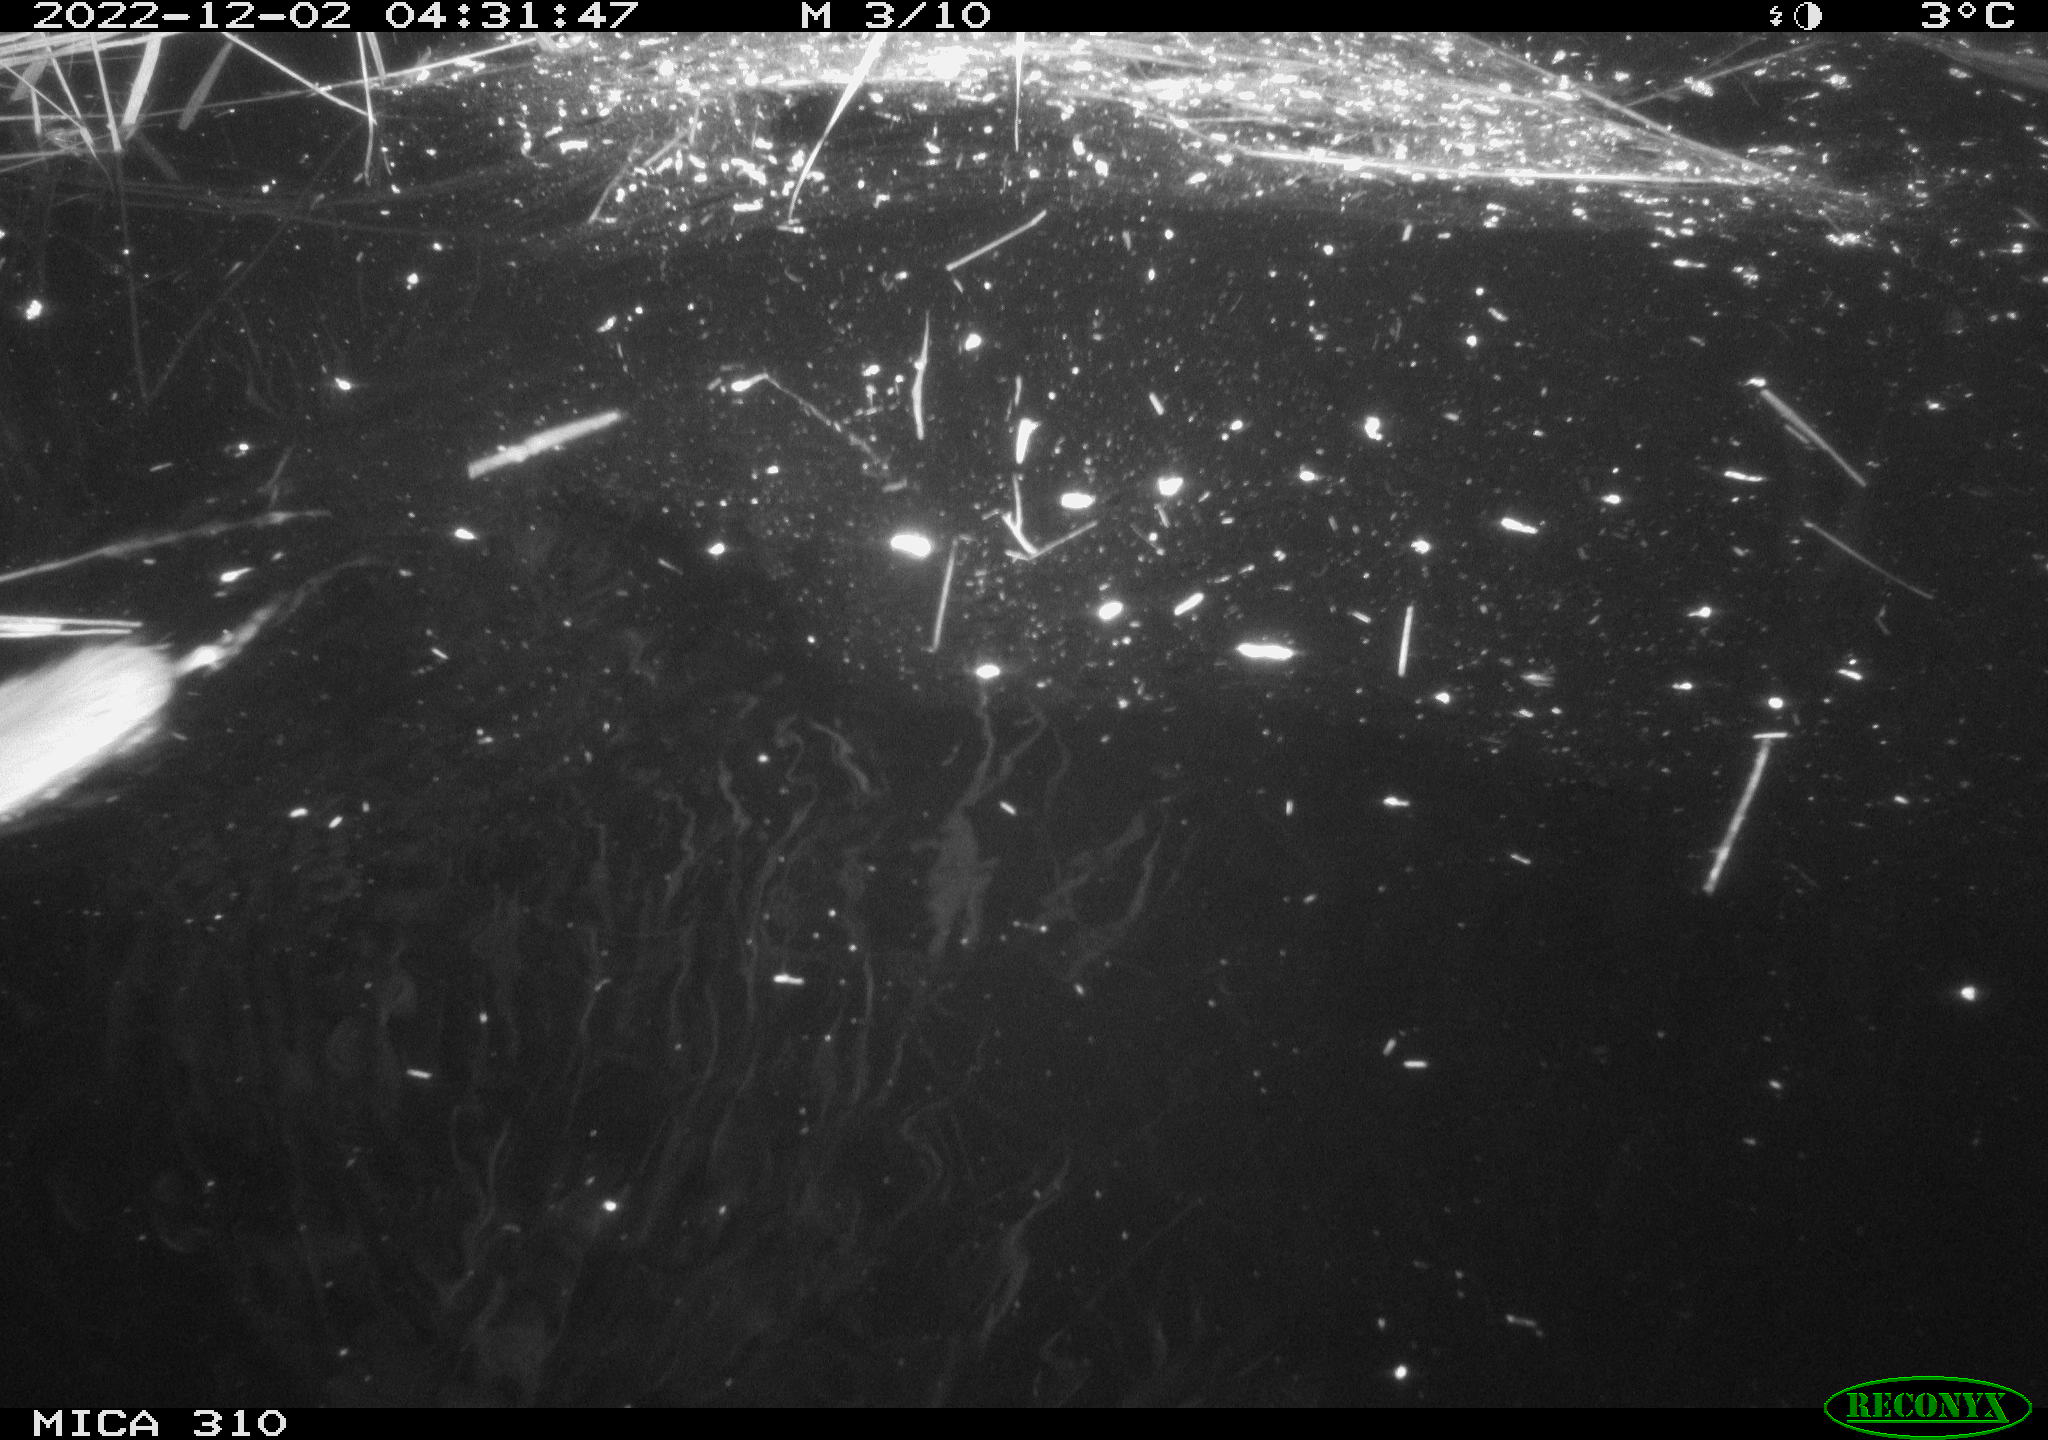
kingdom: Animalia
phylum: Chordata
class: Mammalia
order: Rodentia
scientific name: Rodentia
